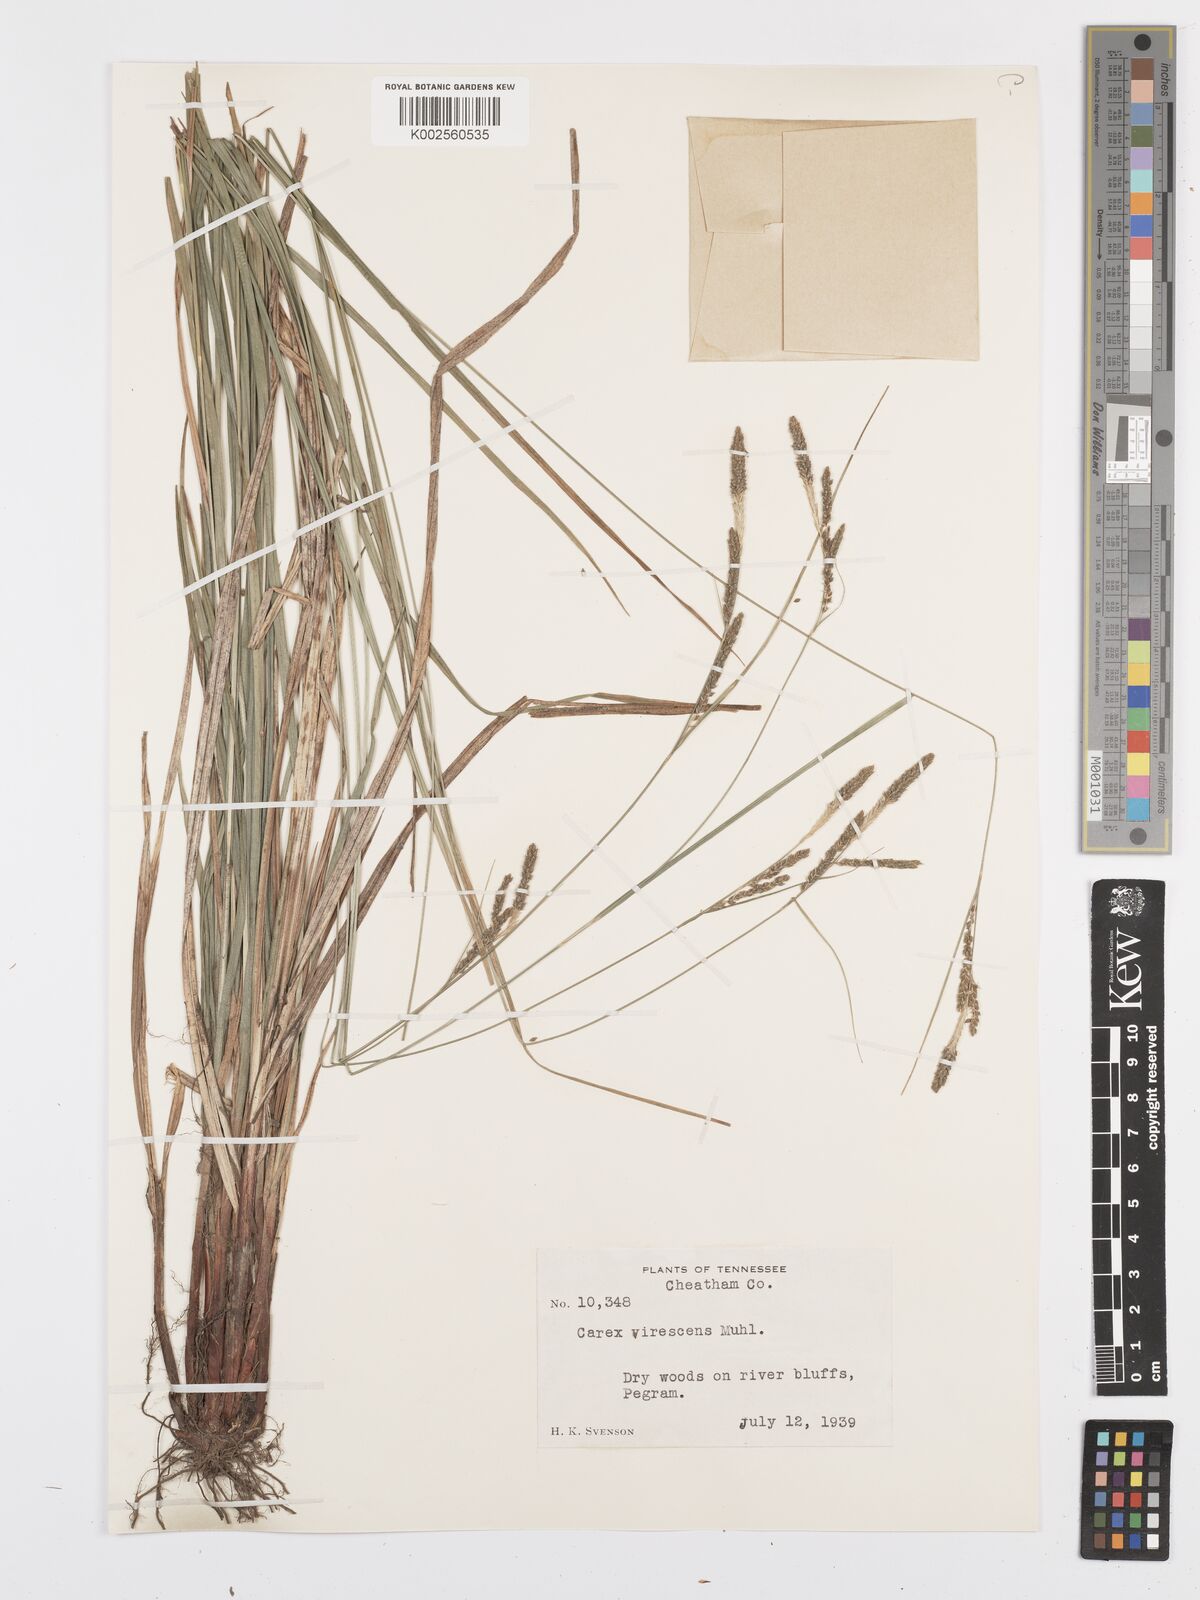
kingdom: Plantae
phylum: Tracheophyta
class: Liliopsida
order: Poales
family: Cyperaceae
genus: Carex
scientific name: Carex virescens
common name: Ribbed sedge
